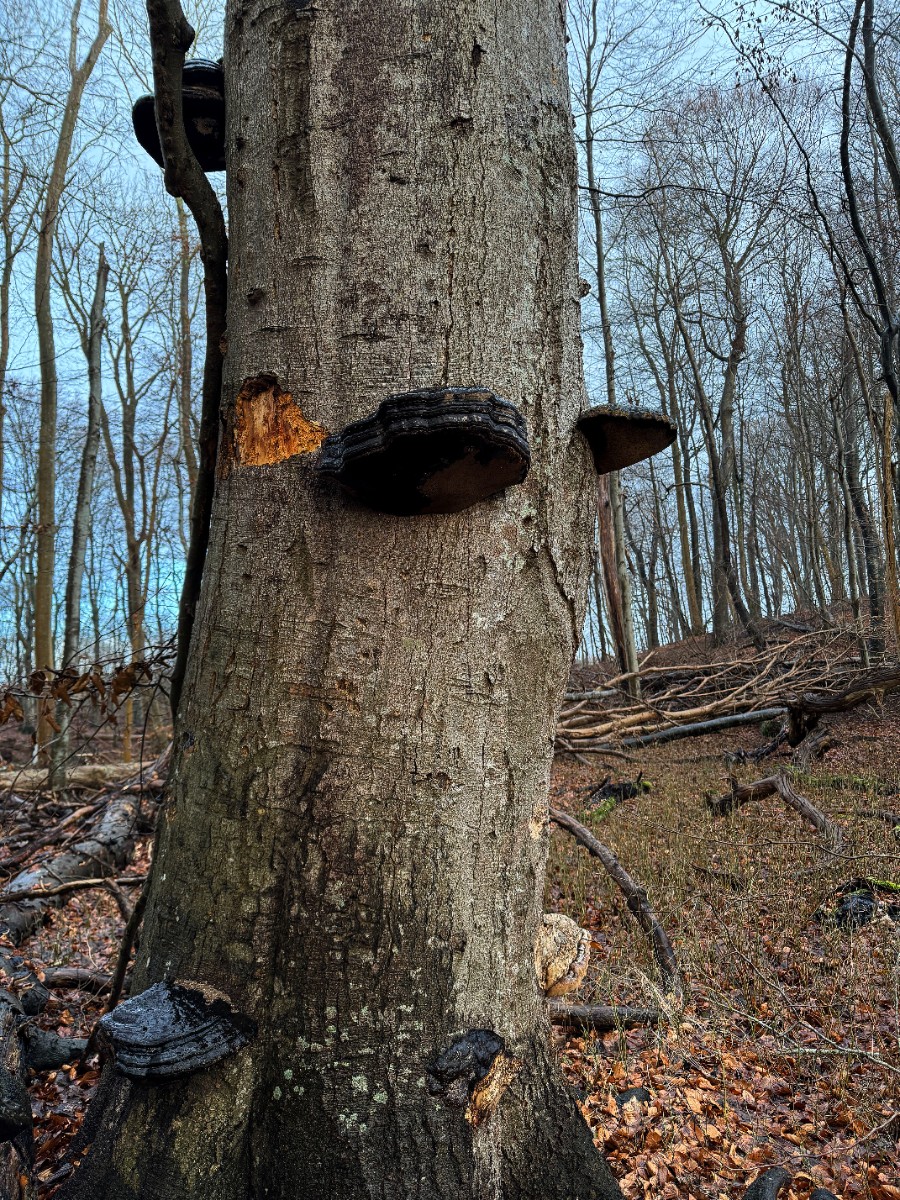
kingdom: Fungi
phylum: Basidiomycota
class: Agaricomycetes
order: Polyporales
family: Polyporaceae
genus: Fomes
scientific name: Fomes fomentarius
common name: tøndersvamp
